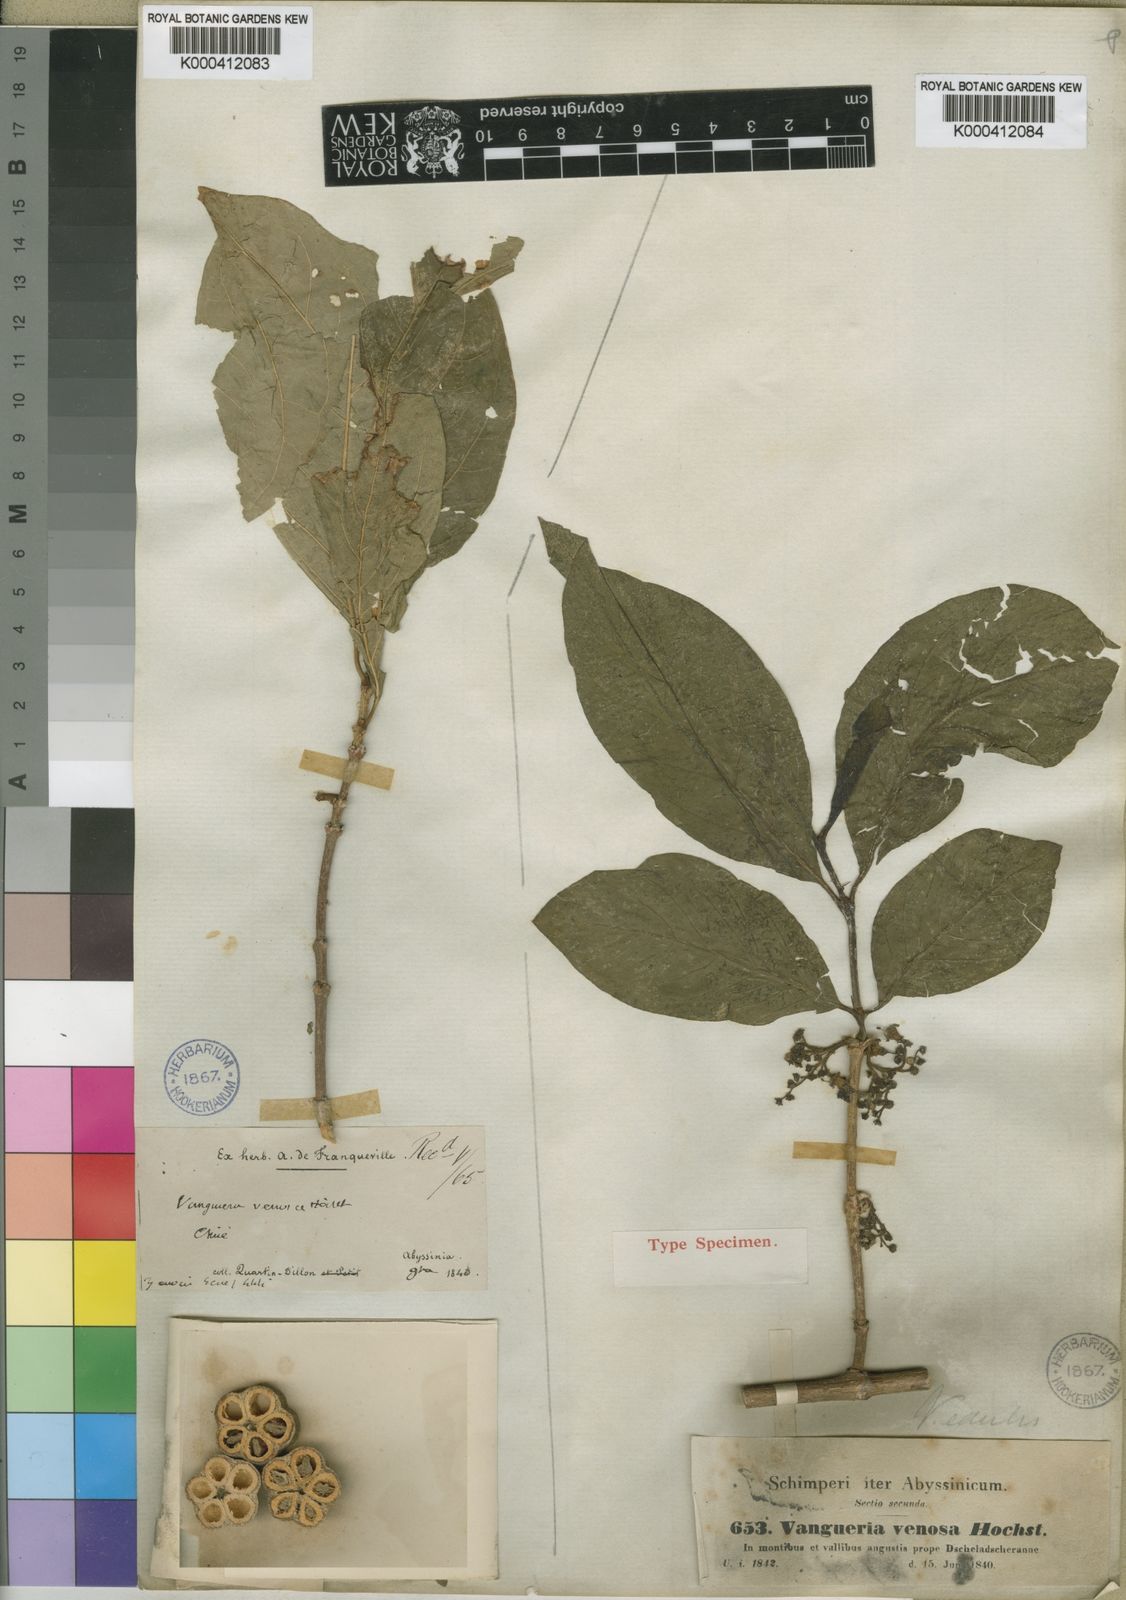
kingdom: Plantae
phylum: Tracheophyta
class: Magnoliopsida
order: Gentianales
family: Rubiaceae
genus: Vangueria
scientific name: Vangueria madagascariensis
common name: Smooth wild-medlar
